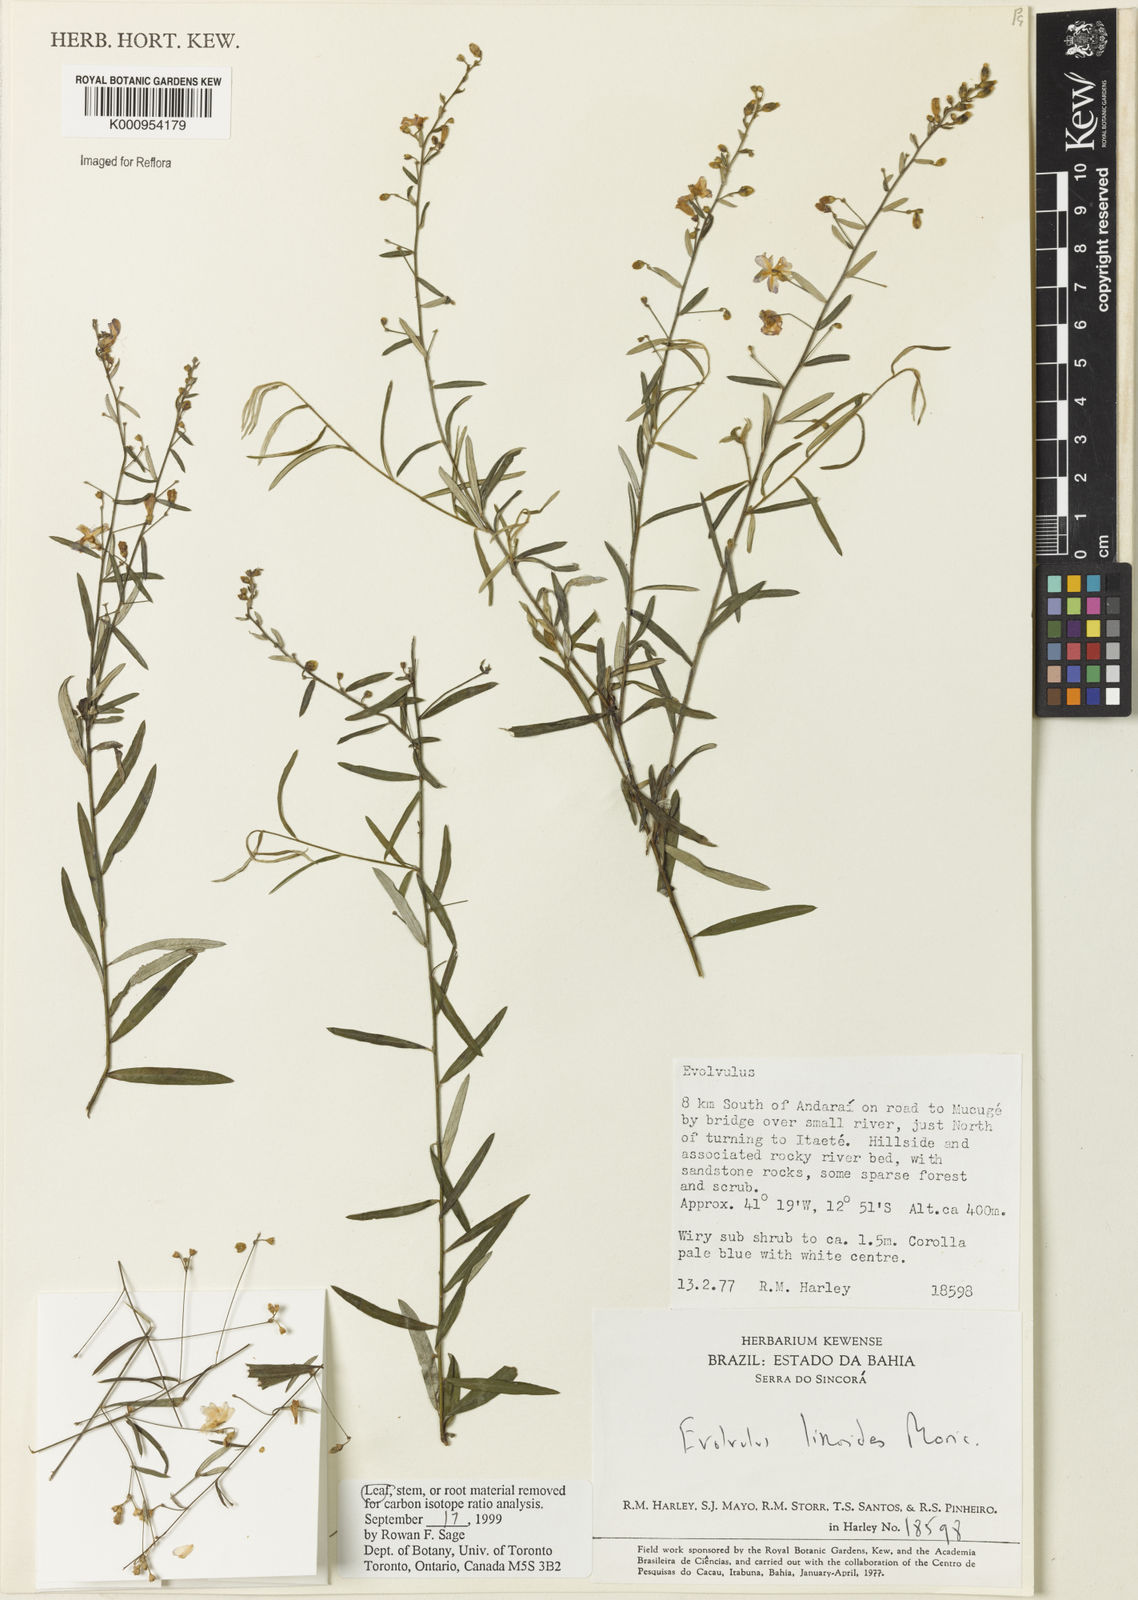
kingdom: Plantae
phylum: Tracheophyta
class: Magnoliopsida
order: Solanales
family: Convolvulaceae
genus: Evolvulus
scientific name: Evolvulus linoides
